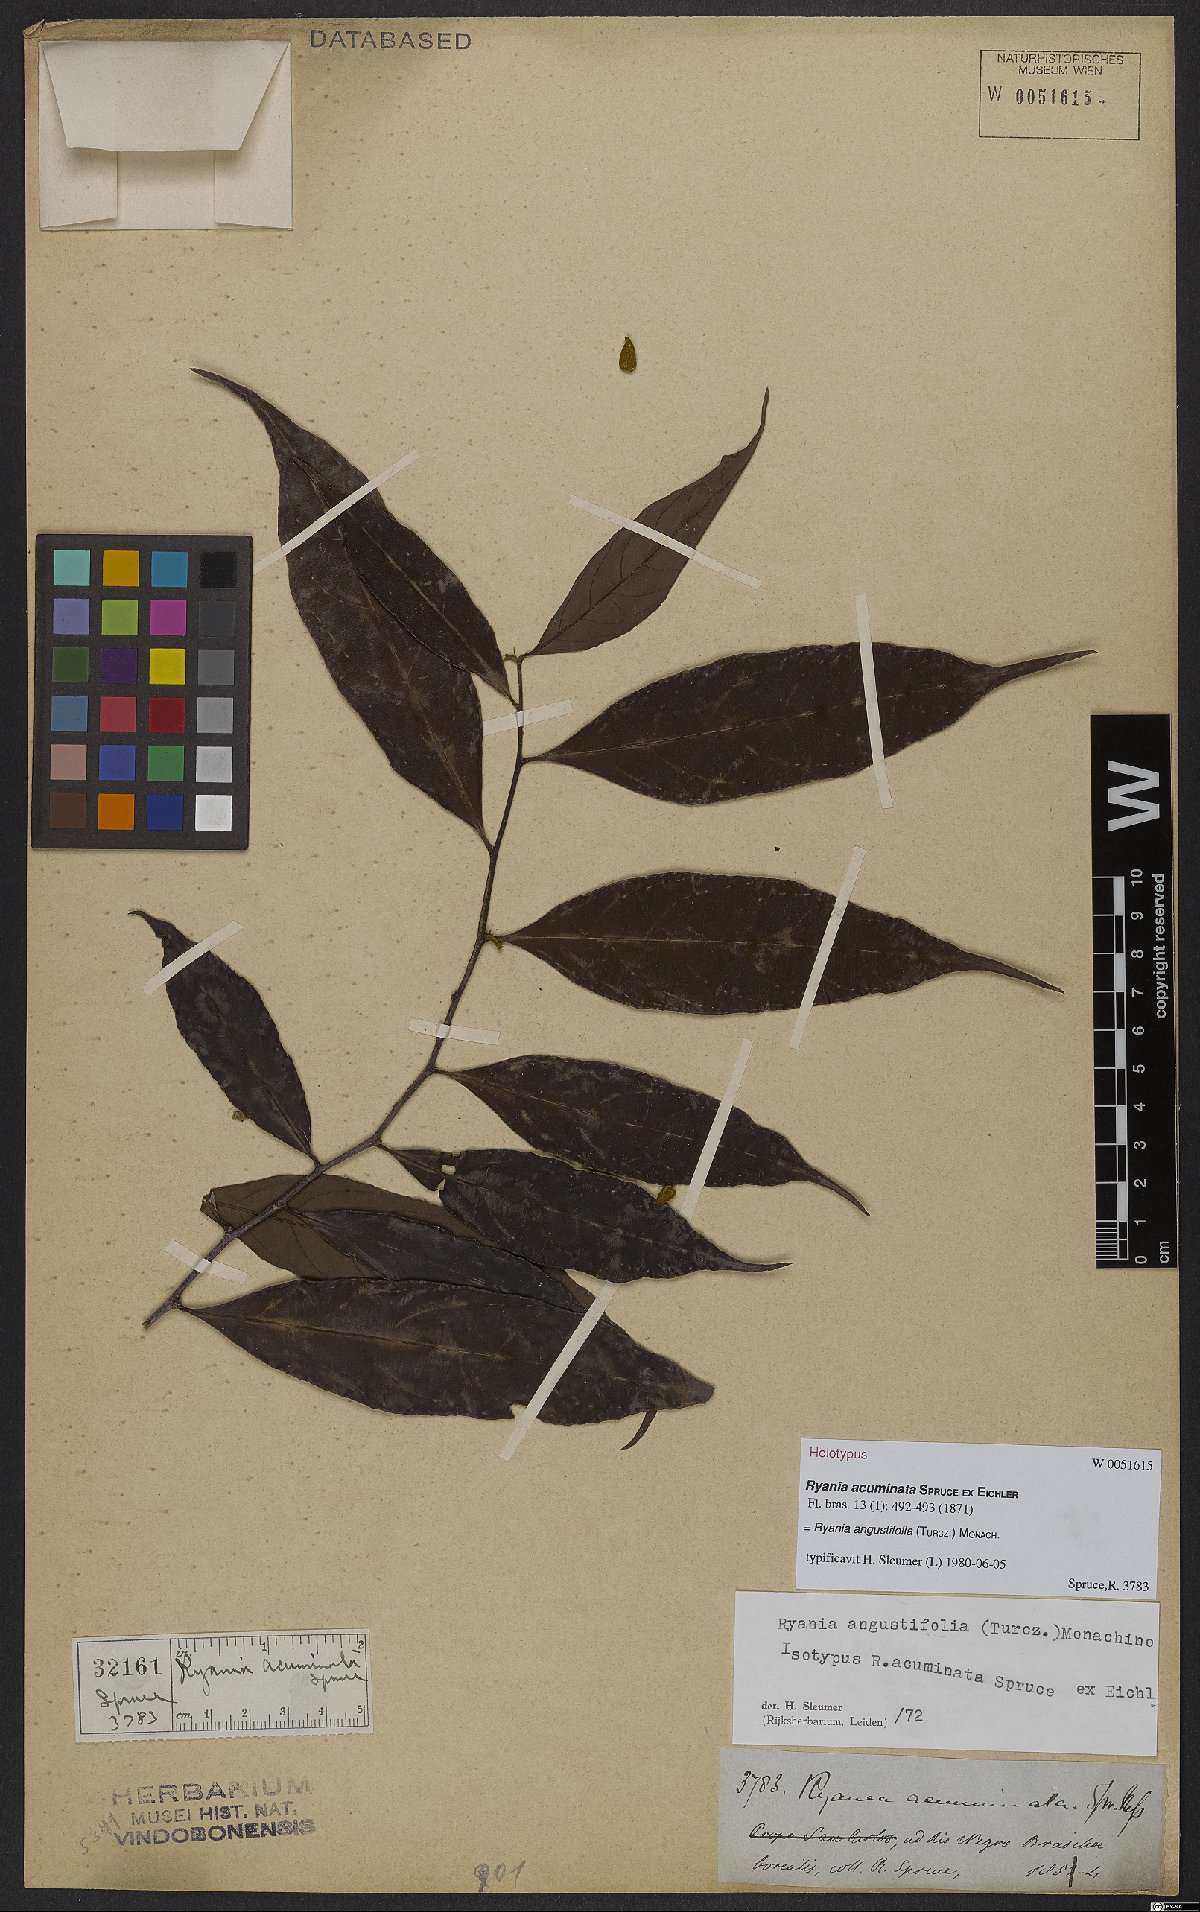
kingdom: Plantae
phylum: Tracheophyta
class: Magnoliopsida
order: Malpighiales
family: Salicaceae
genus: Ryania
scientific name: Ryania angustifolia
